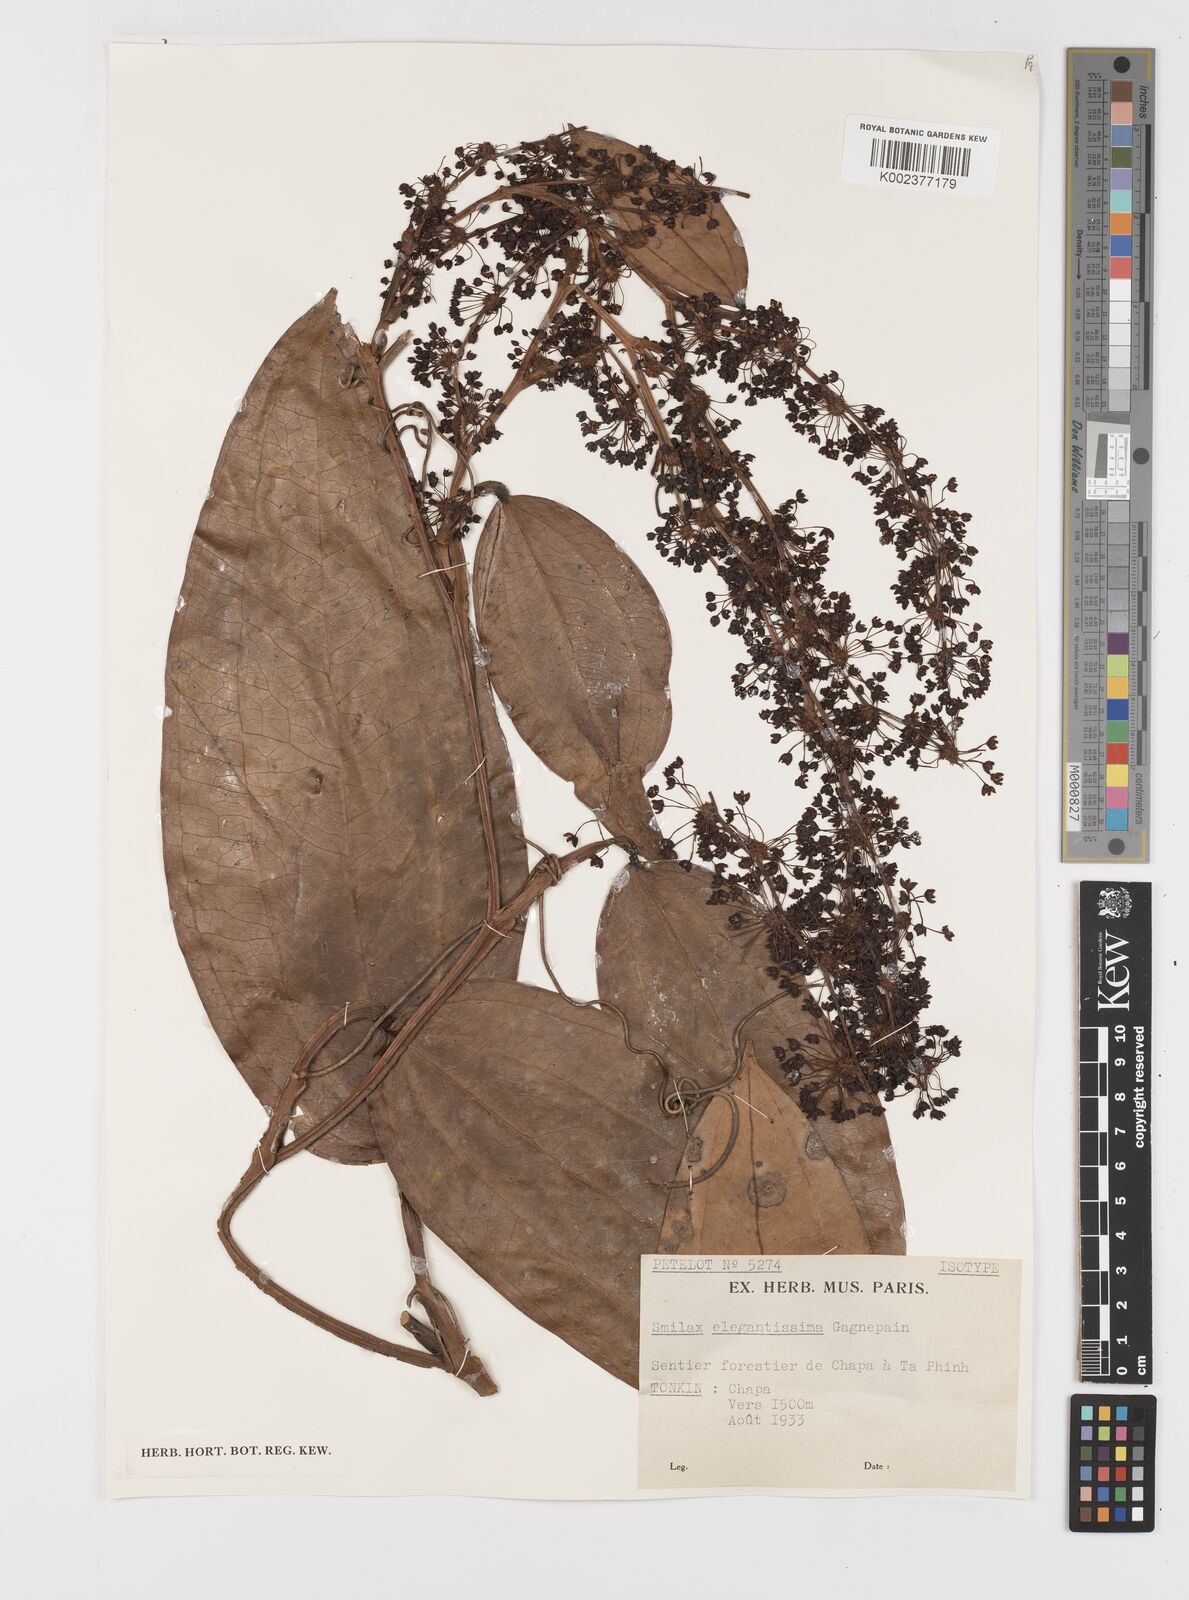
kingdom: Plantae
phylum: Tracheophyta
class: Liliopsida
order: Liliales
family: Smilacaceae
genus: Smilax
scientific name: Smilax elegantissima
